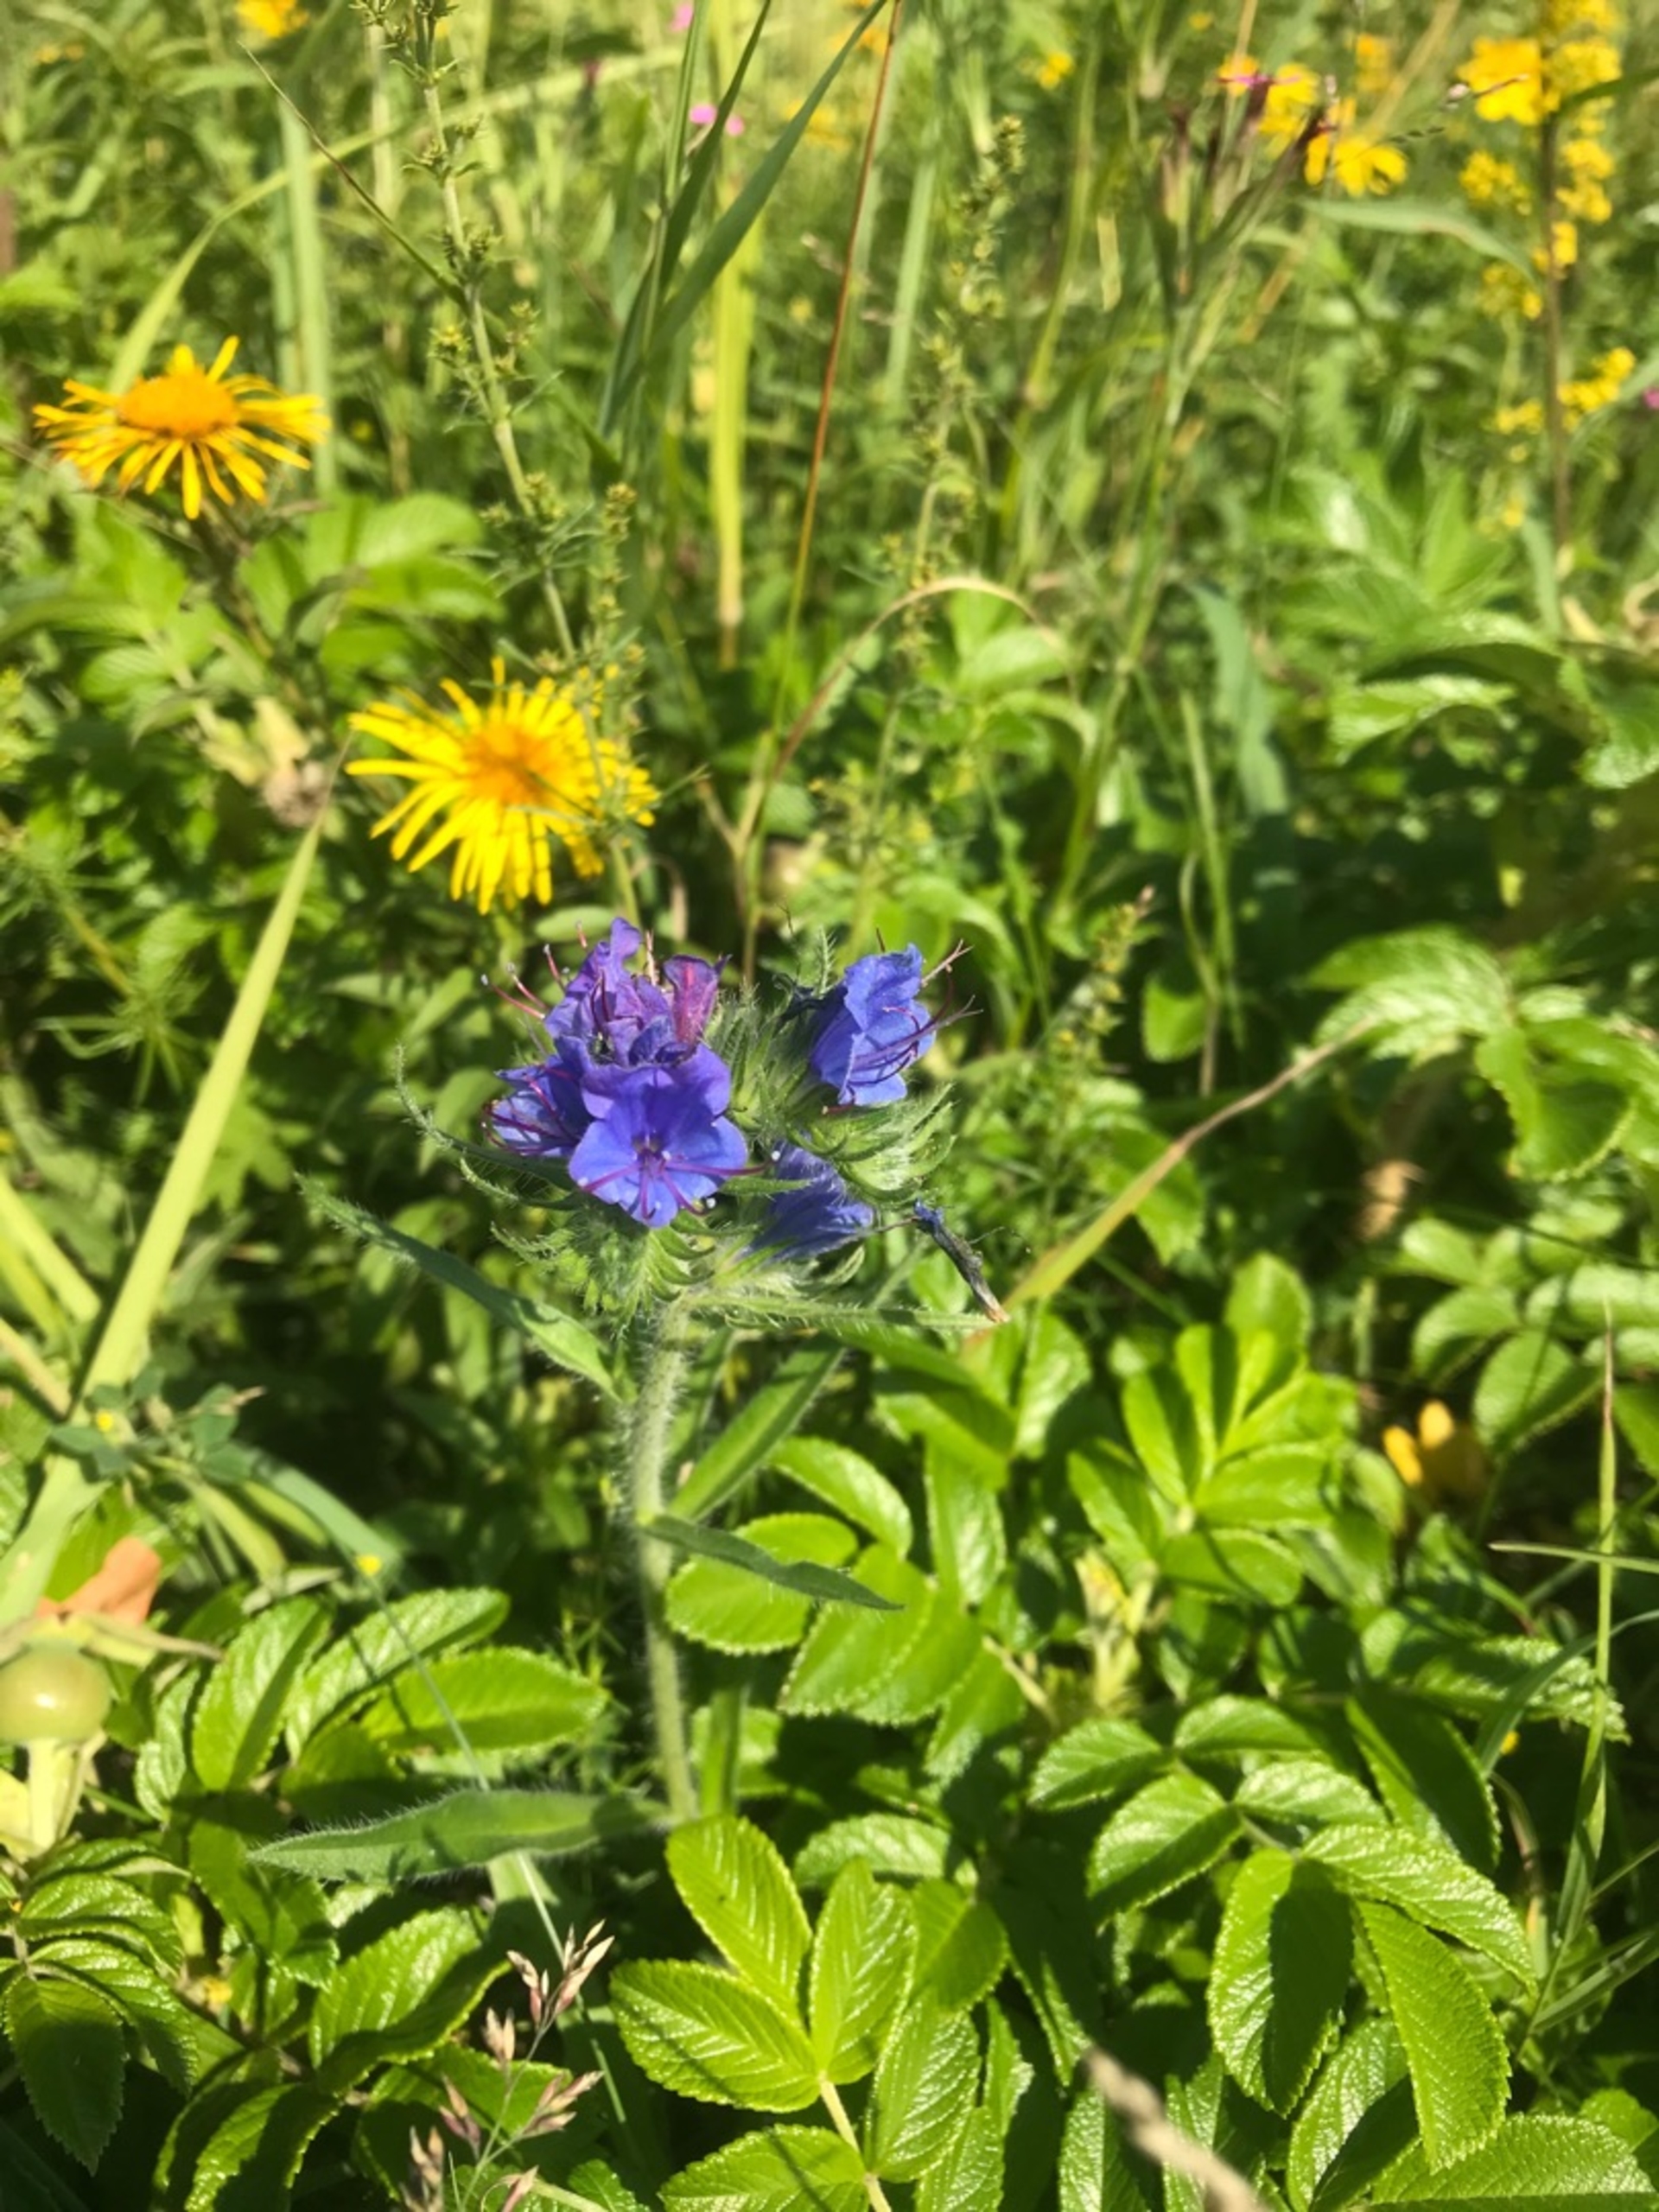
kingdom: Plantae
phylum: Tracheophyta
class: Magnoliopsida
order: Boraginales
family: Boraginaceae
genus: Echium
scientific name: Echium vulgare
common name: Slangehoved
